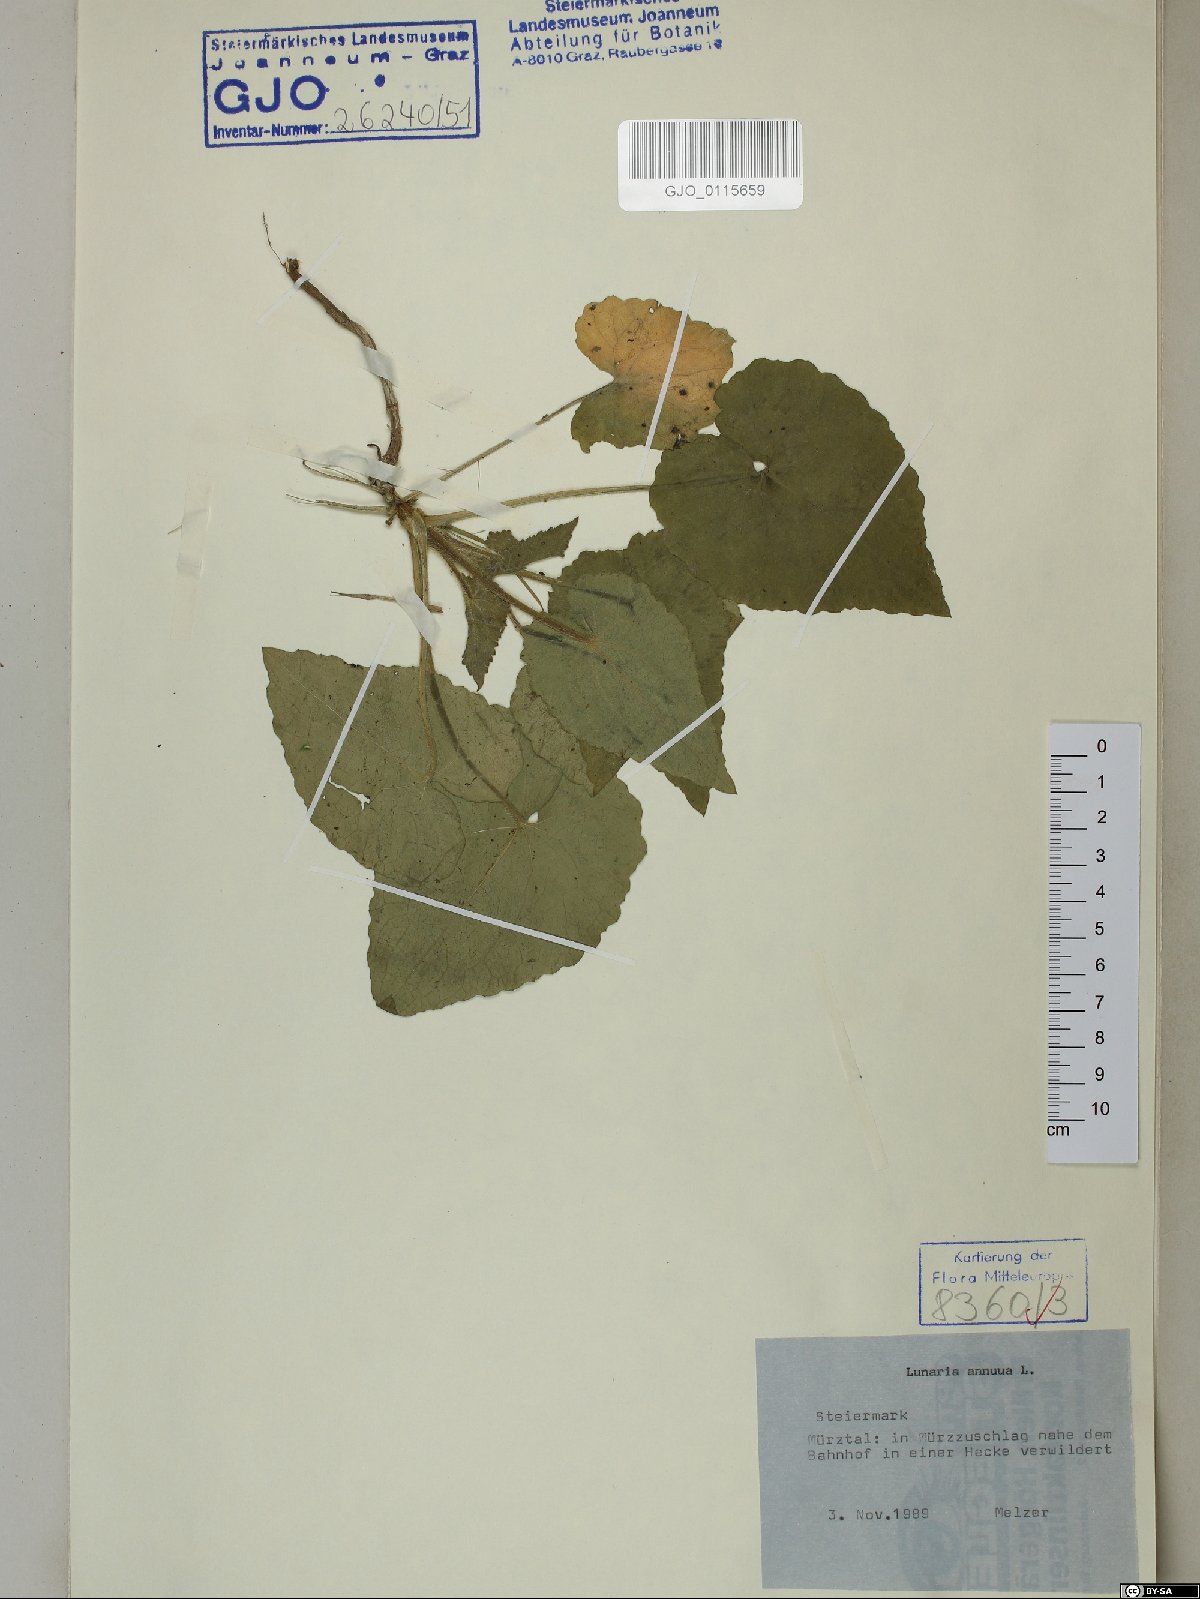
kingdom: Plantae
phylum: Tracheophyta
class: Magnoliopsida
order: Brassicales
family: Brassicaceae
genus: Lunaria
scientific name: Lunaria annua
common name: Honesty
